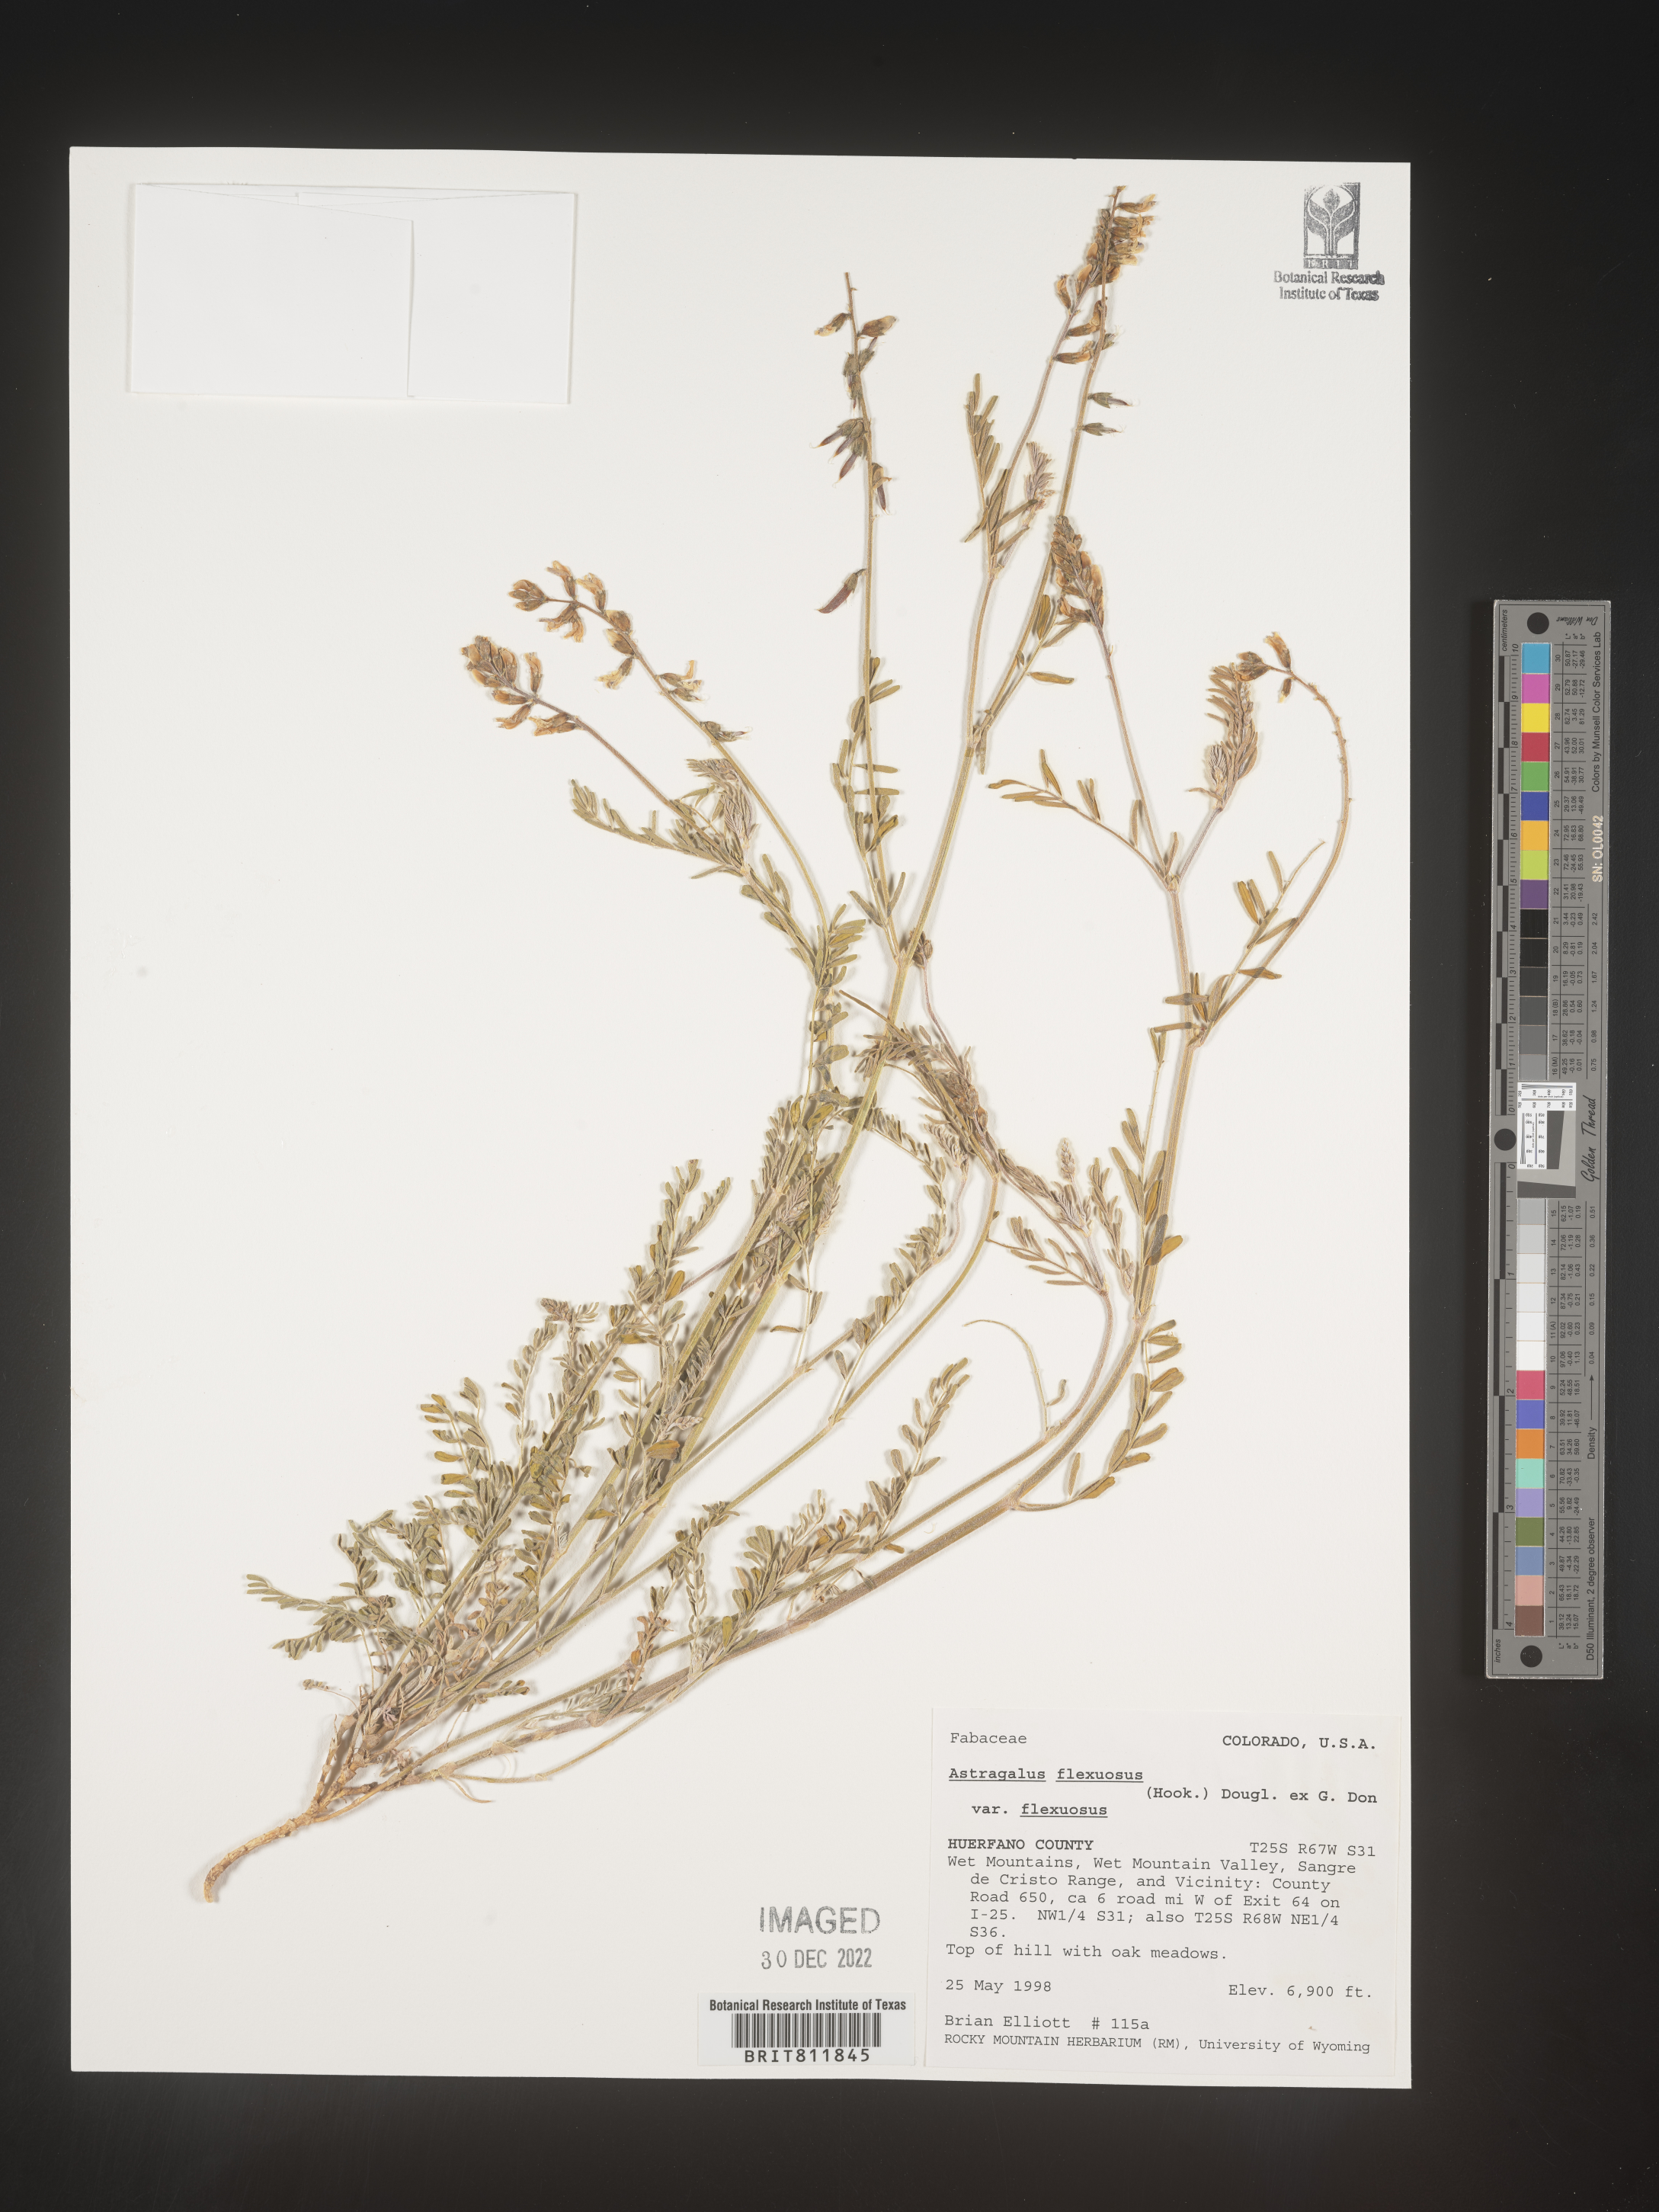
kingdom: Plantae
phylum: Tracheophyta
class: Magnoliopsida
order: Fabales
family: Fabaceae
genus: Astragalus
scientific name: Astragalus flexuosus
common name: Pliant milk-vetch
